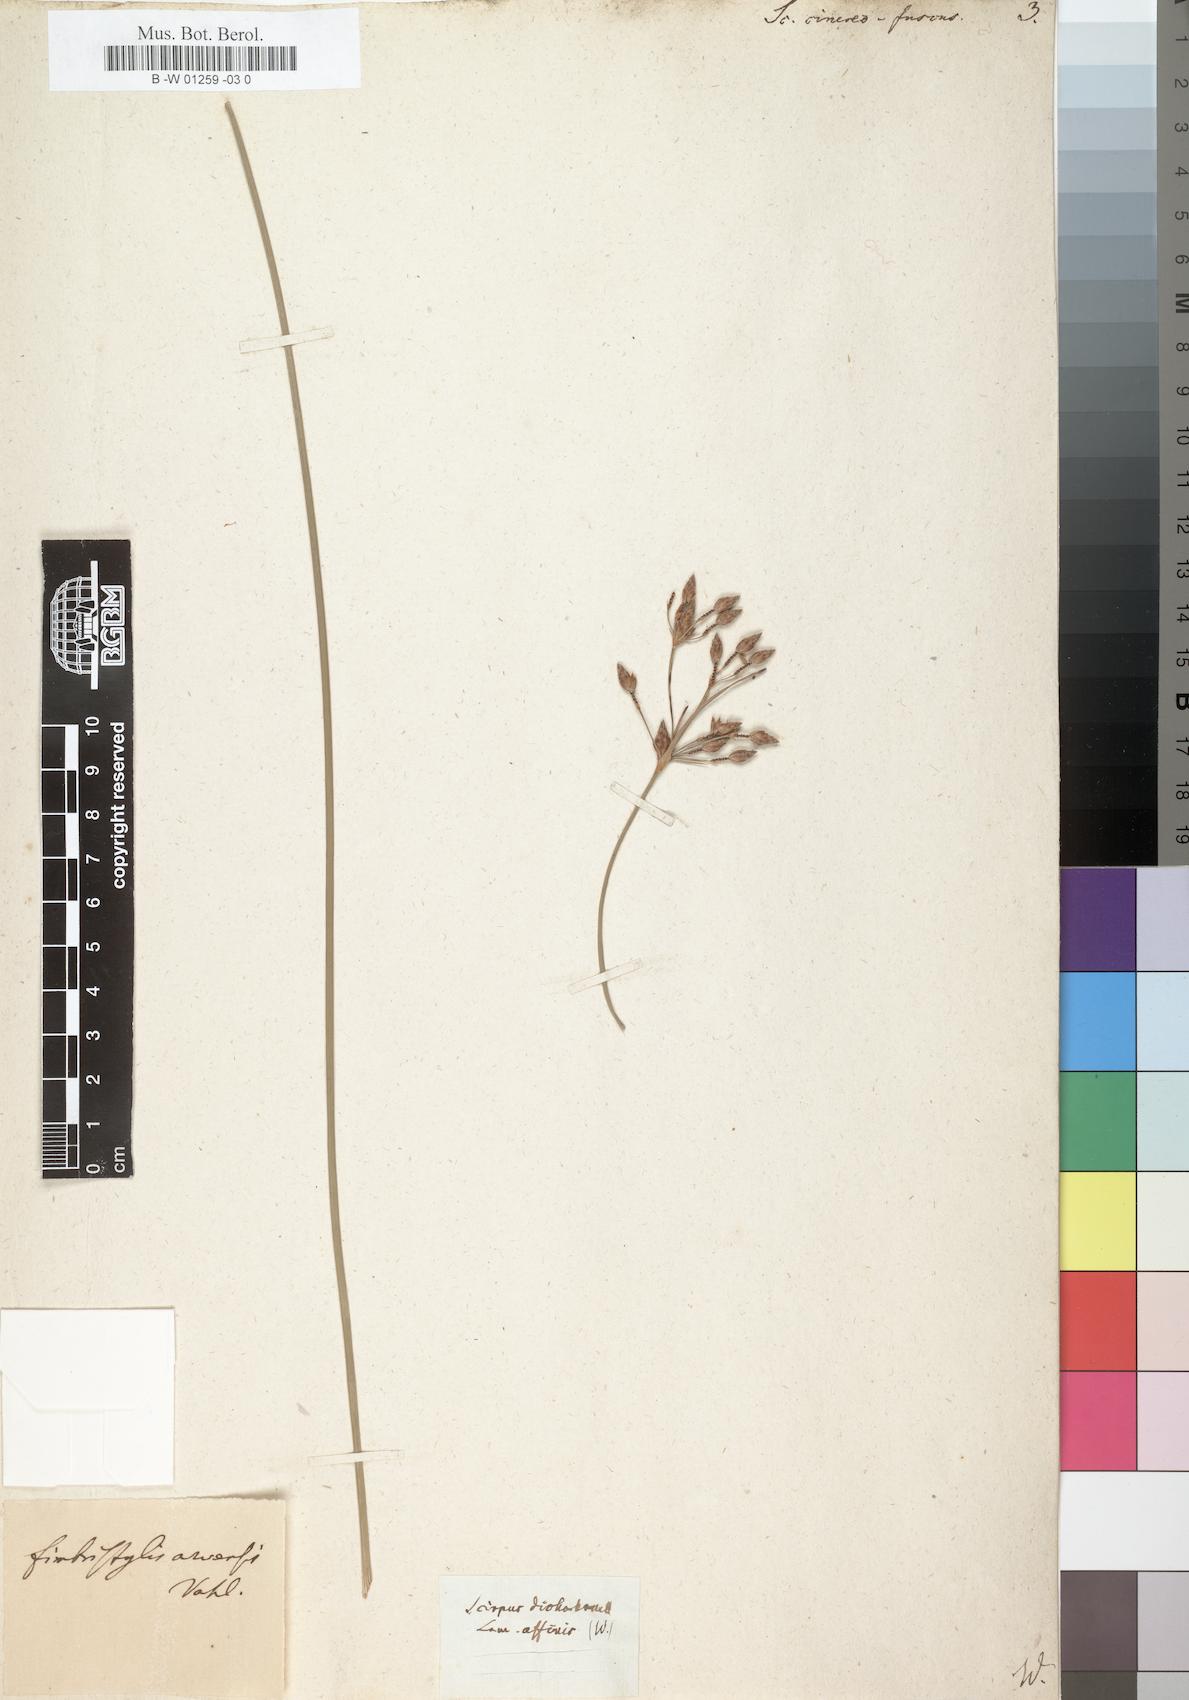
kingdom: Plantae
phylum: Tracheophyta
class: Liliopsida
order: Poales
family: Cyperaceae
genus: Fimbristylis
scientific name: Fimbristylis ferruginea
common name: West indian fimbry
